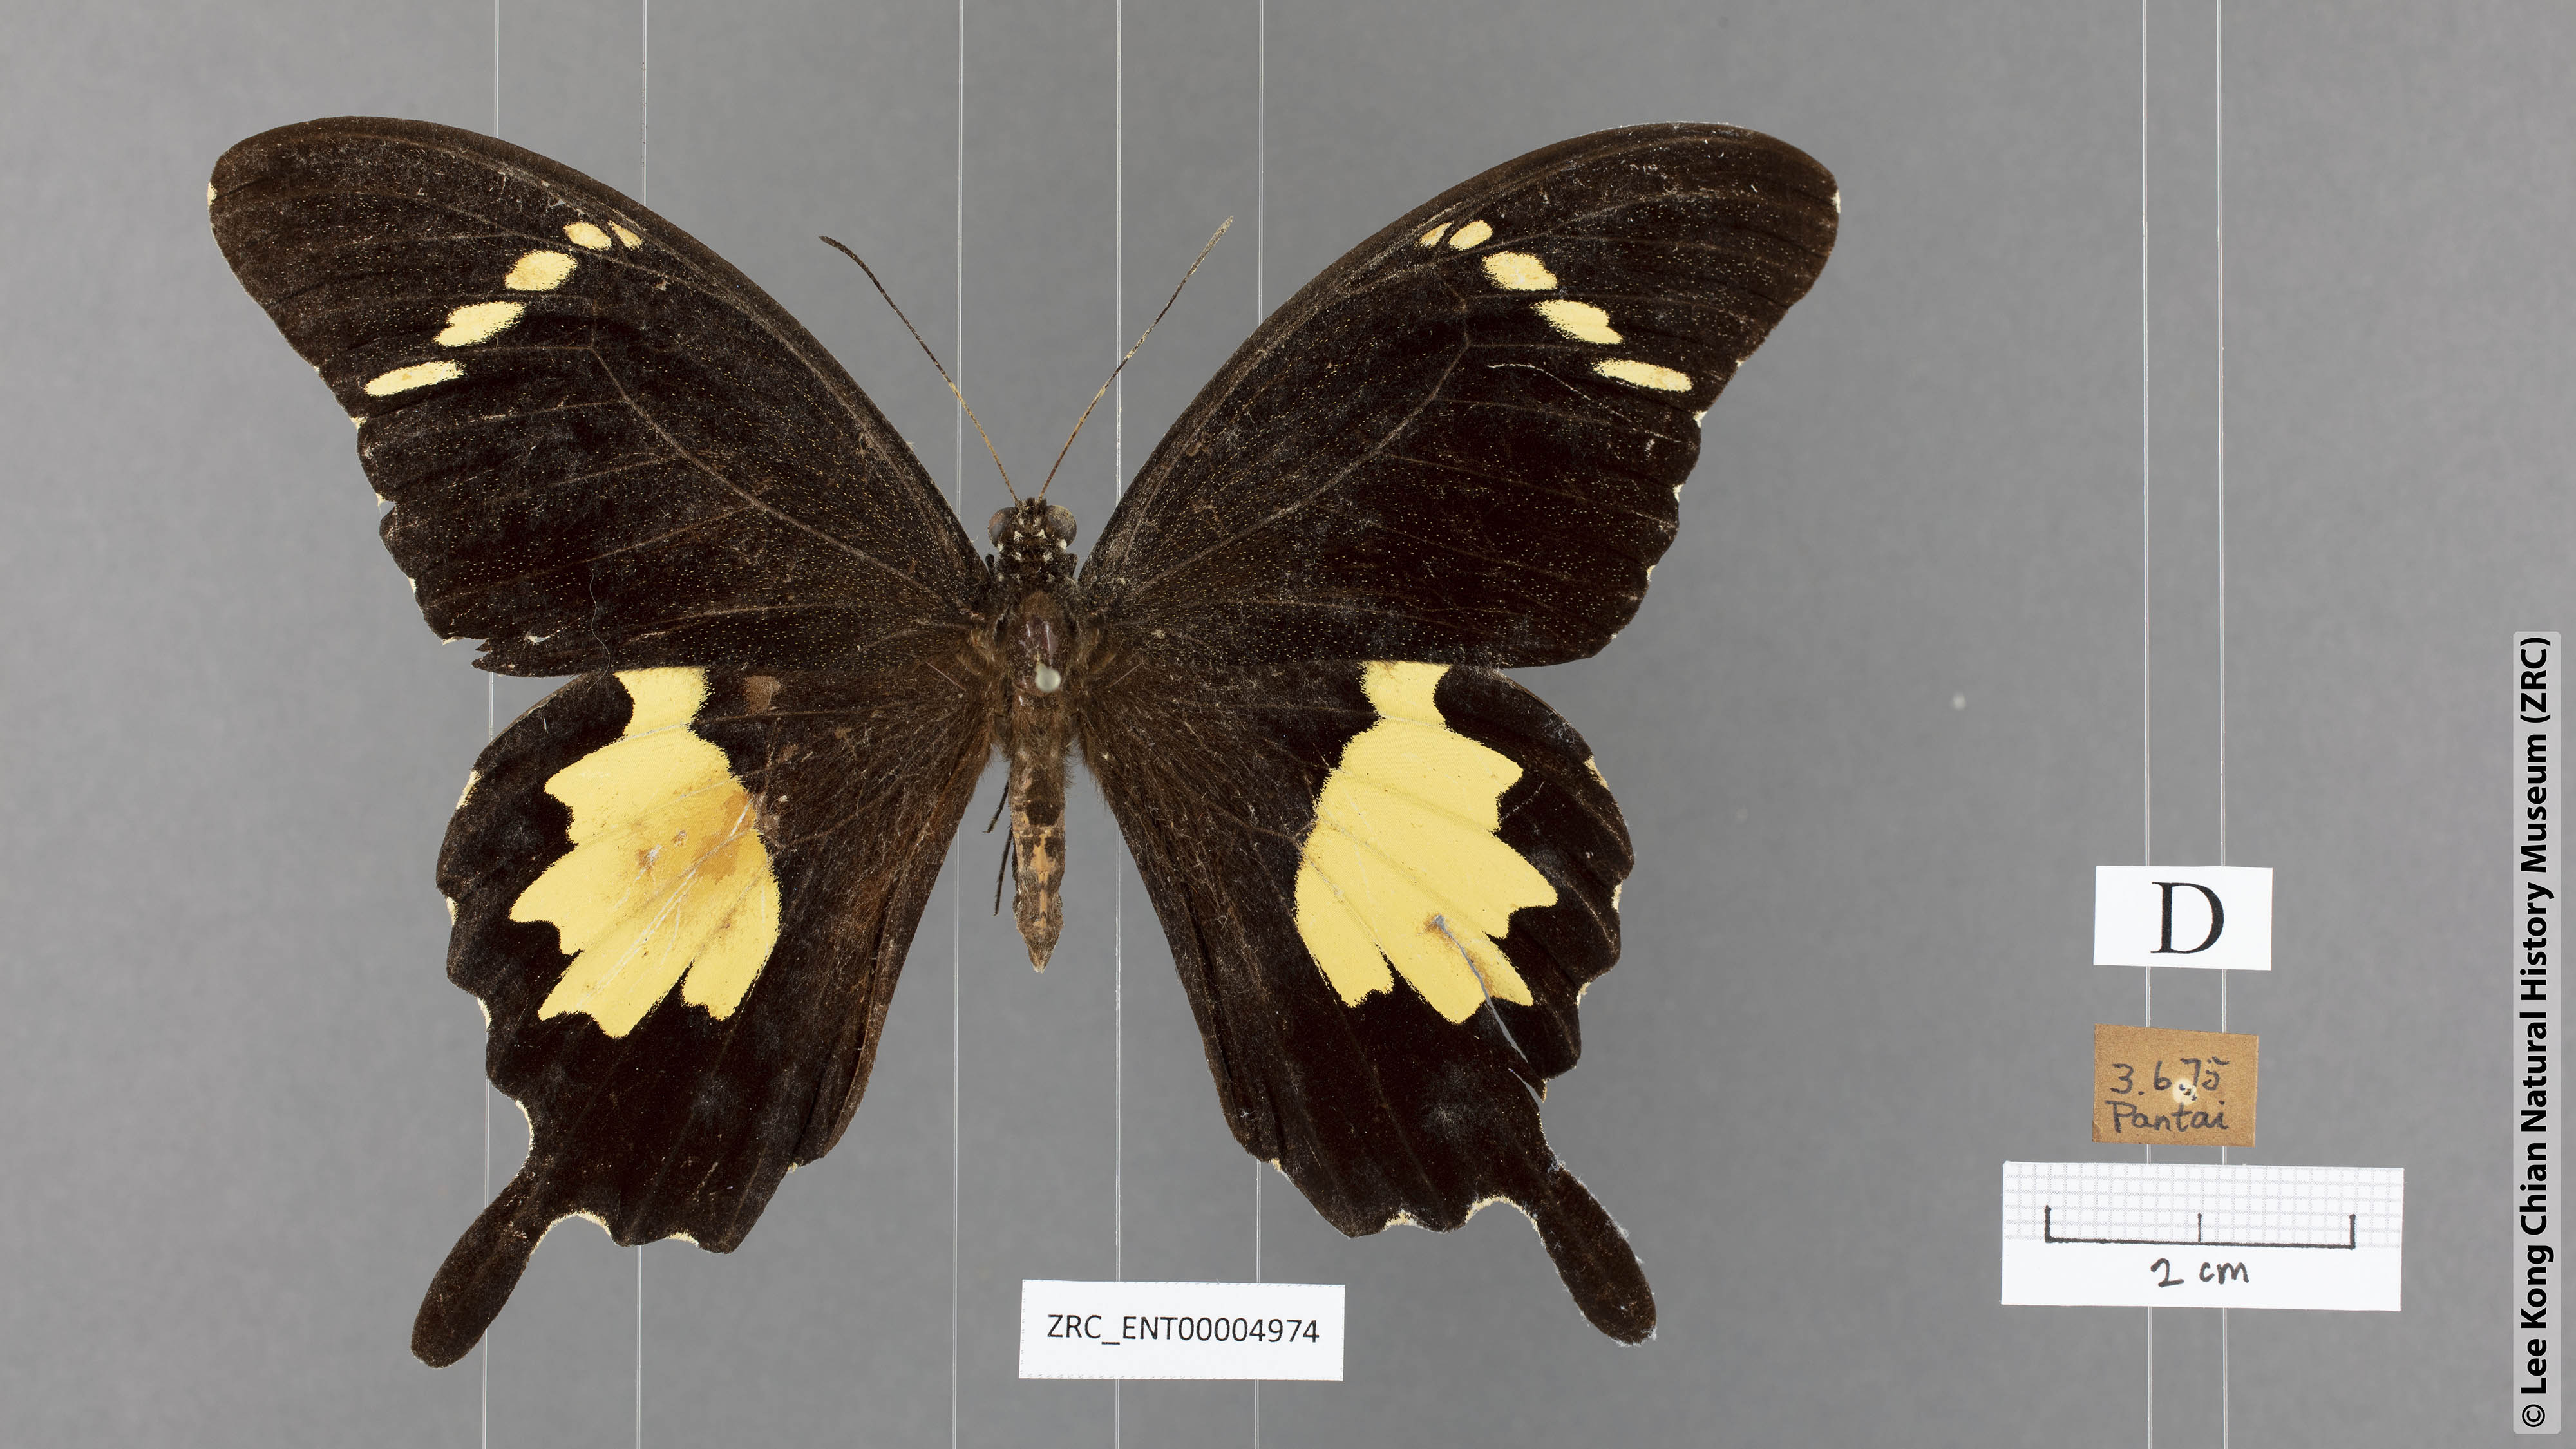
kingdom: Animalia
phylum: Arthropoda
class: Insecta
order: Lepidoptera
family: Papilionidae
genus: Papilio
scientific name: Papilio nephelus
